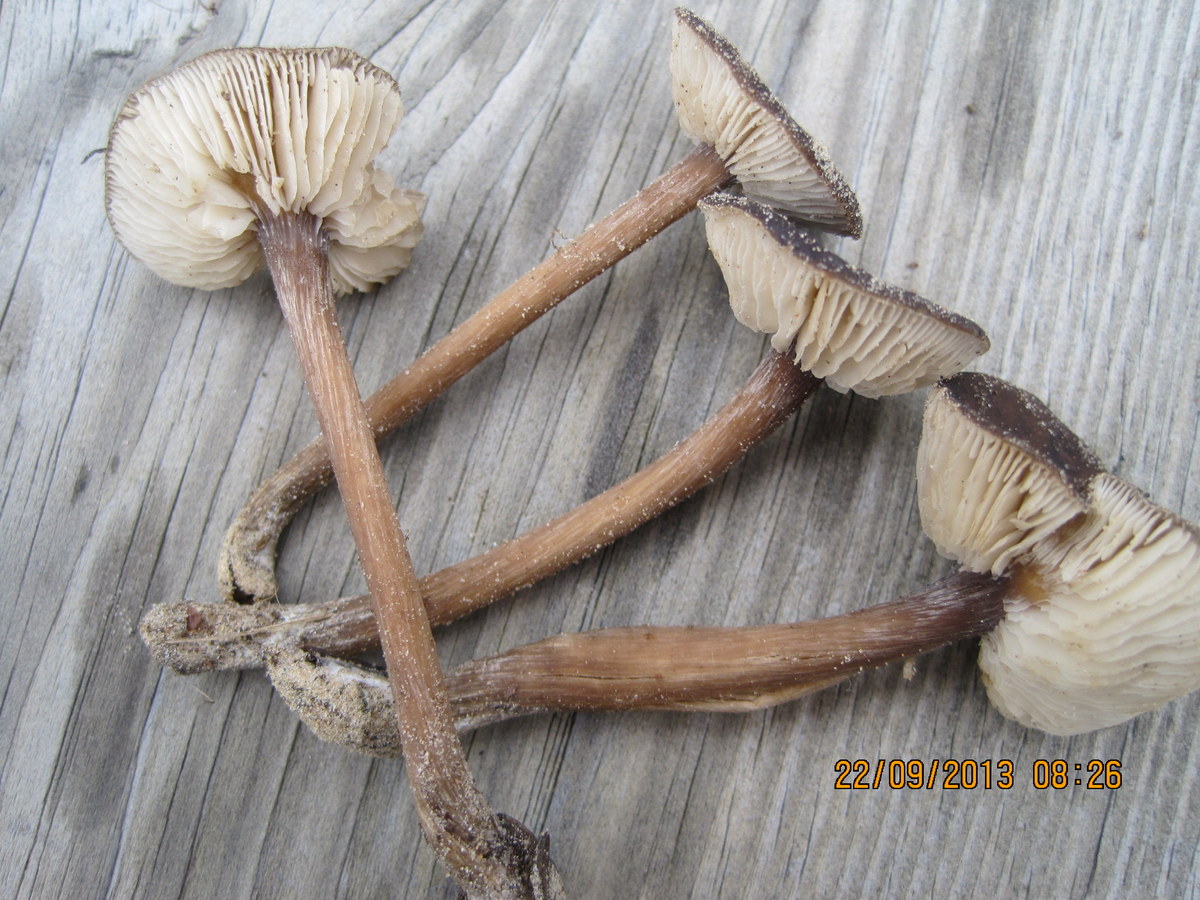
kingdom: Fungi
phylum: Basidiomycota
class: Agaricomycetes
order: Agaricales
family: Tricholomataceae
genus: Melanoleuca
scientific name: Melanoleuca microcephala
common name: spinkel munkehat
